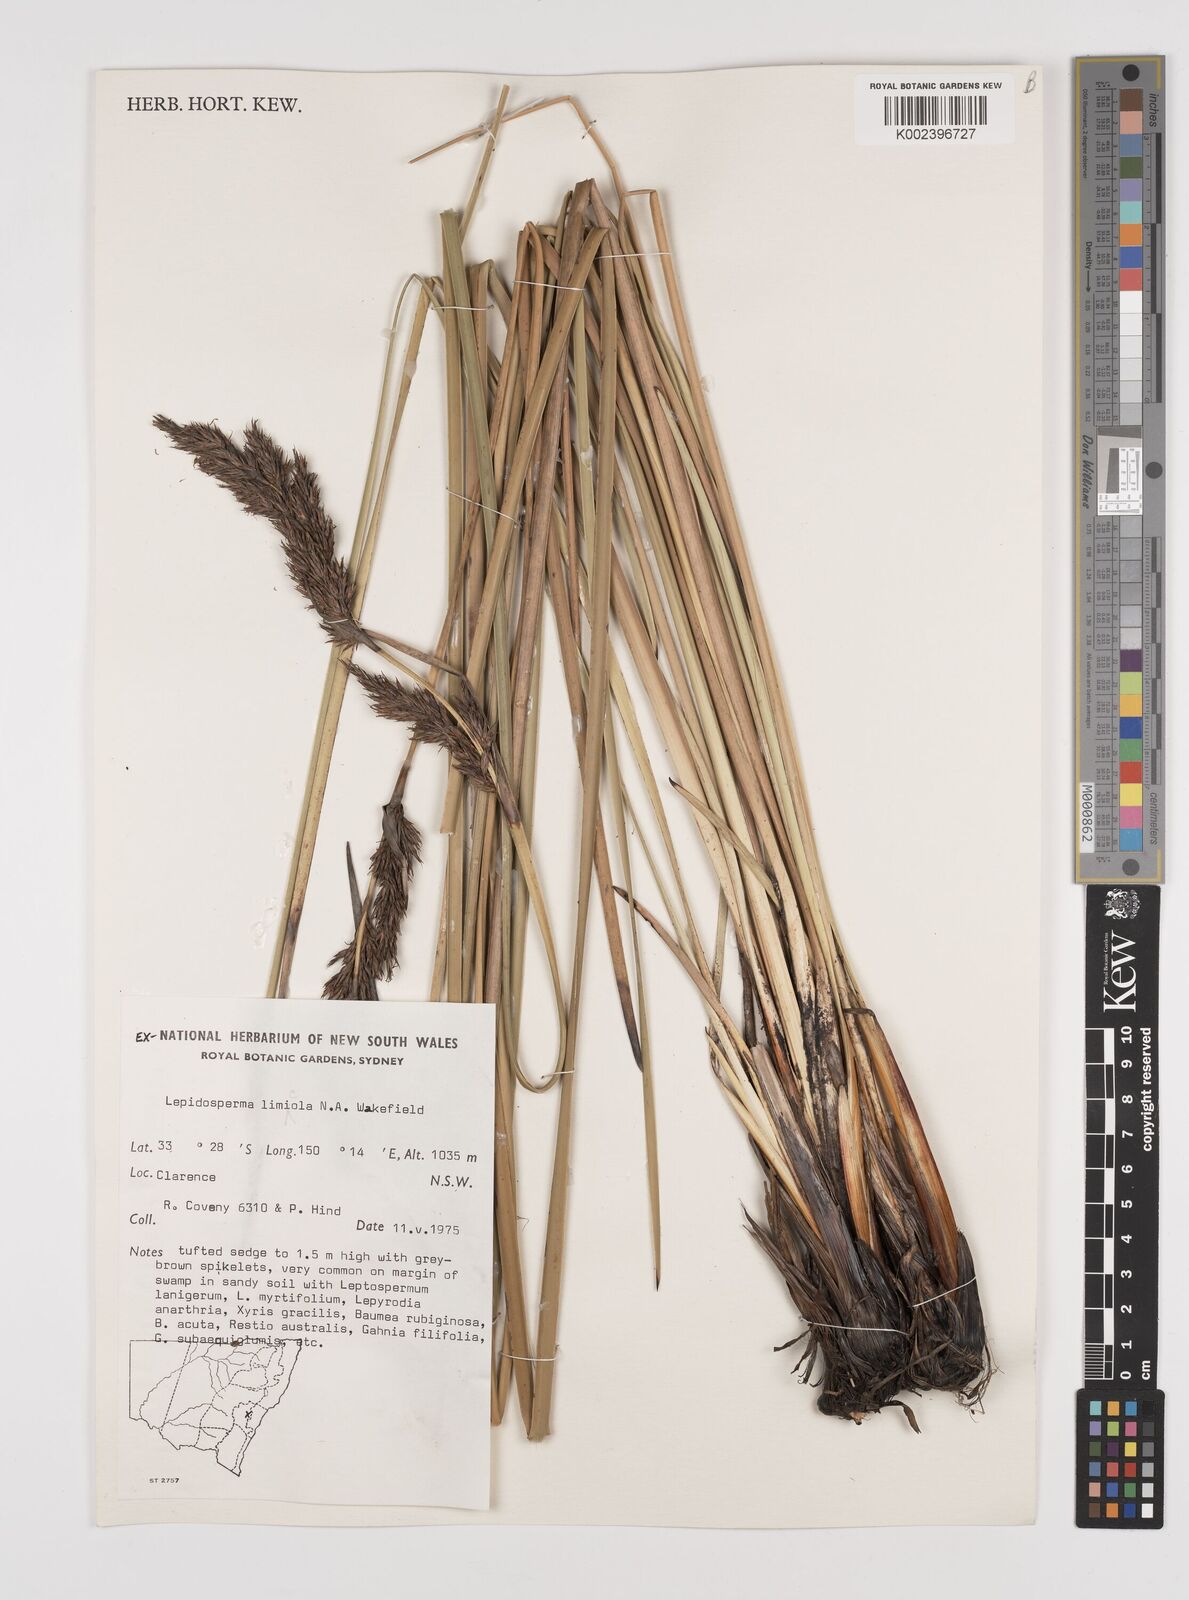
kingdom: Plantae
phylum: Tracheophyta
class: Liliopsida
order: Poales
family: Cyperaceae
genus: Lepidosperma
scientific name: Lepidosperma limicola
